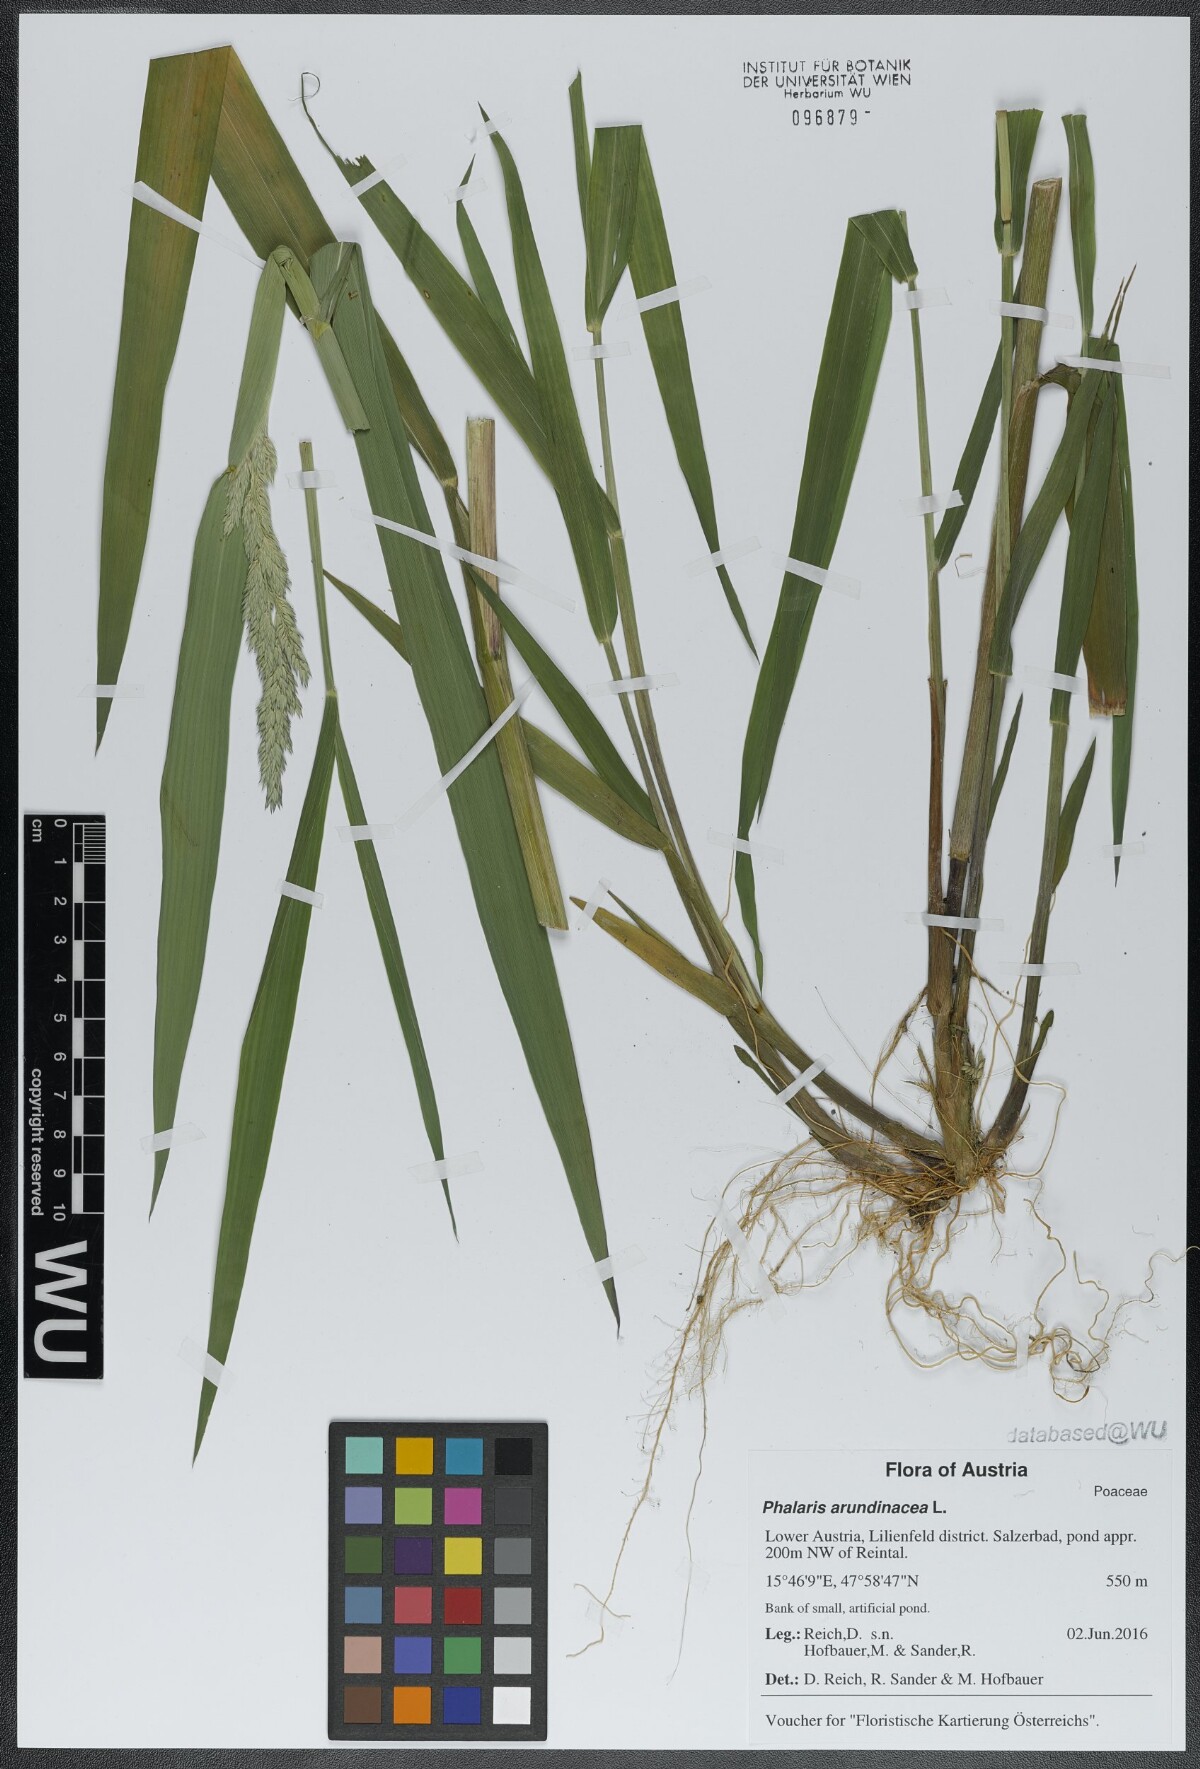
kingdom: Plantae
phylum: Tracheophyta
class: Liliopsida
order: Poales
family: Poaceae
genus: Phalaris
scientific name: Phalaris arundinacea
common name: Reed canary-grass
